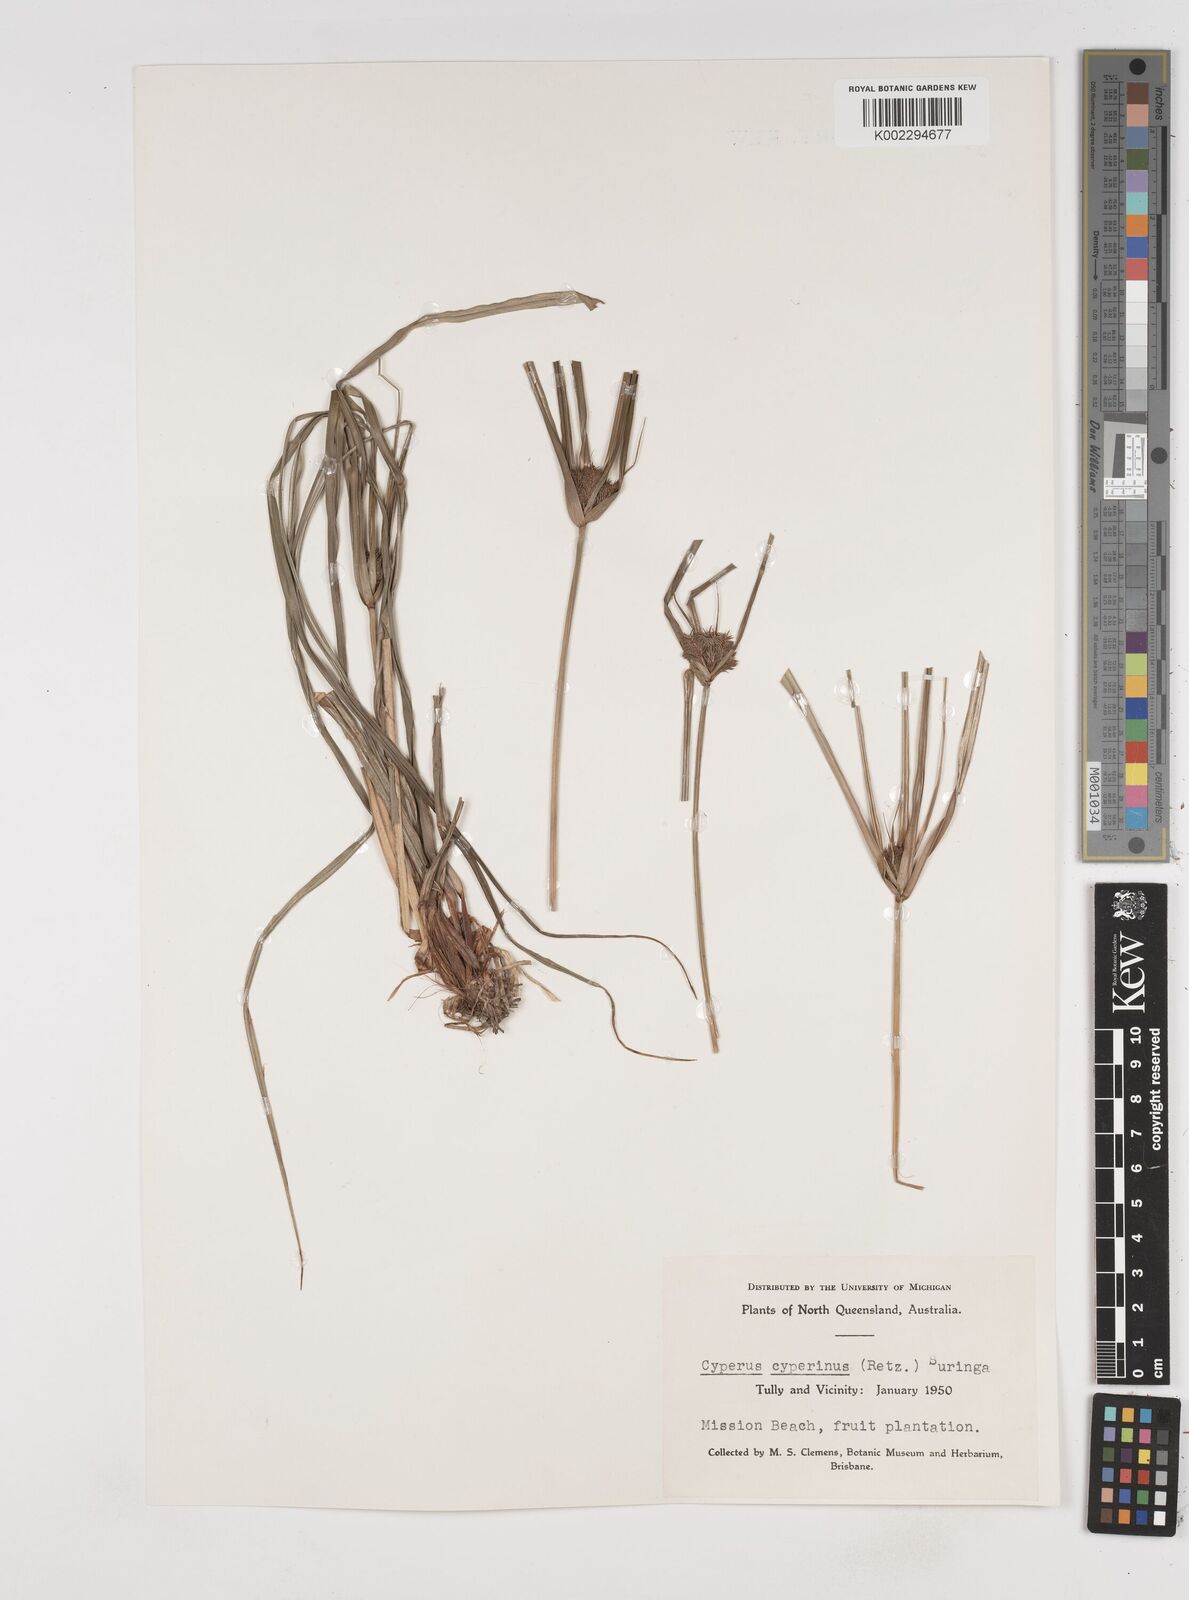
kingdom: Plantae
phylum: Tracheophyta
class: Liliopsida
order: Poales
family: Cyperaceae
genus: Cyperus
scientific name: Cyperus paniceus
